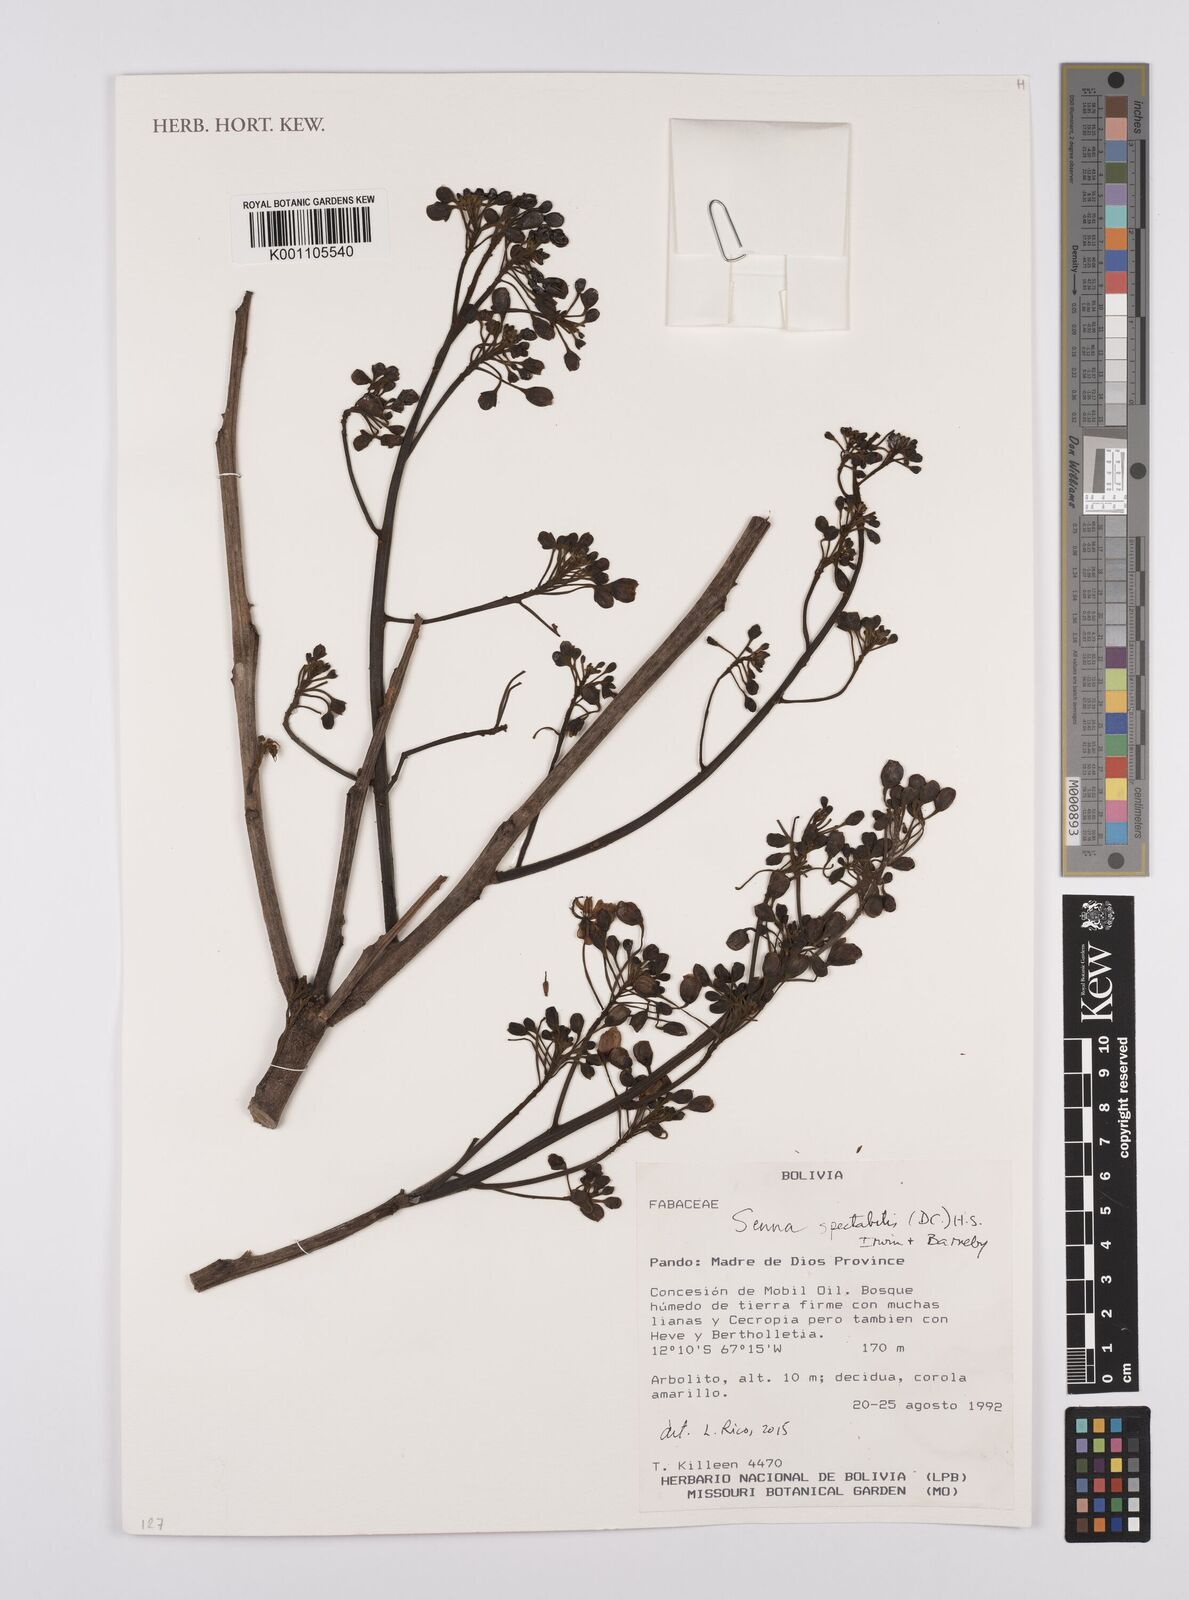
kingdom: Plantae
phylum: Tracheophyta
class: Magnoliopsida
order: Fabales
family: Fabaceae
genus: Senna
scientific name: Senna spectabilis
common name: Casia amarilla
